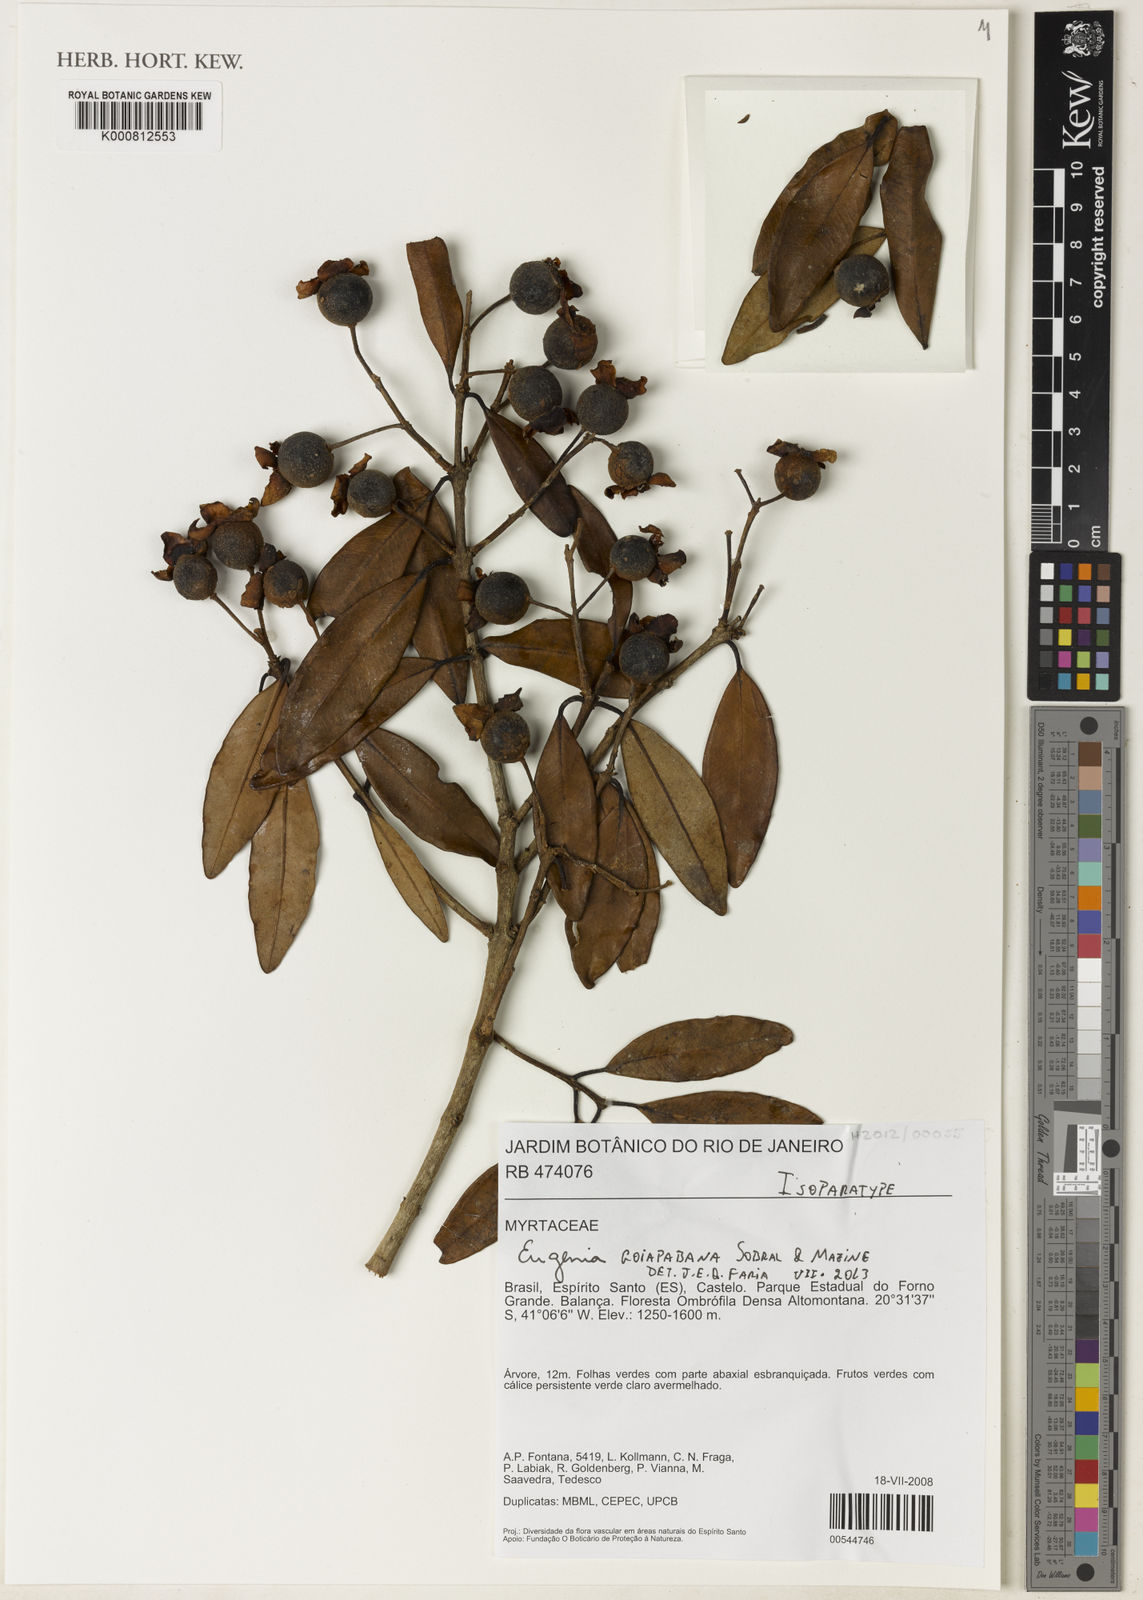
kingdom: Plantae
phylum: Tracheophyta
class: Magnoliopsida
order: Myrtales
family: Myrtaceae
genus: Eugenia
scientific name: Eugenia goiapabana
